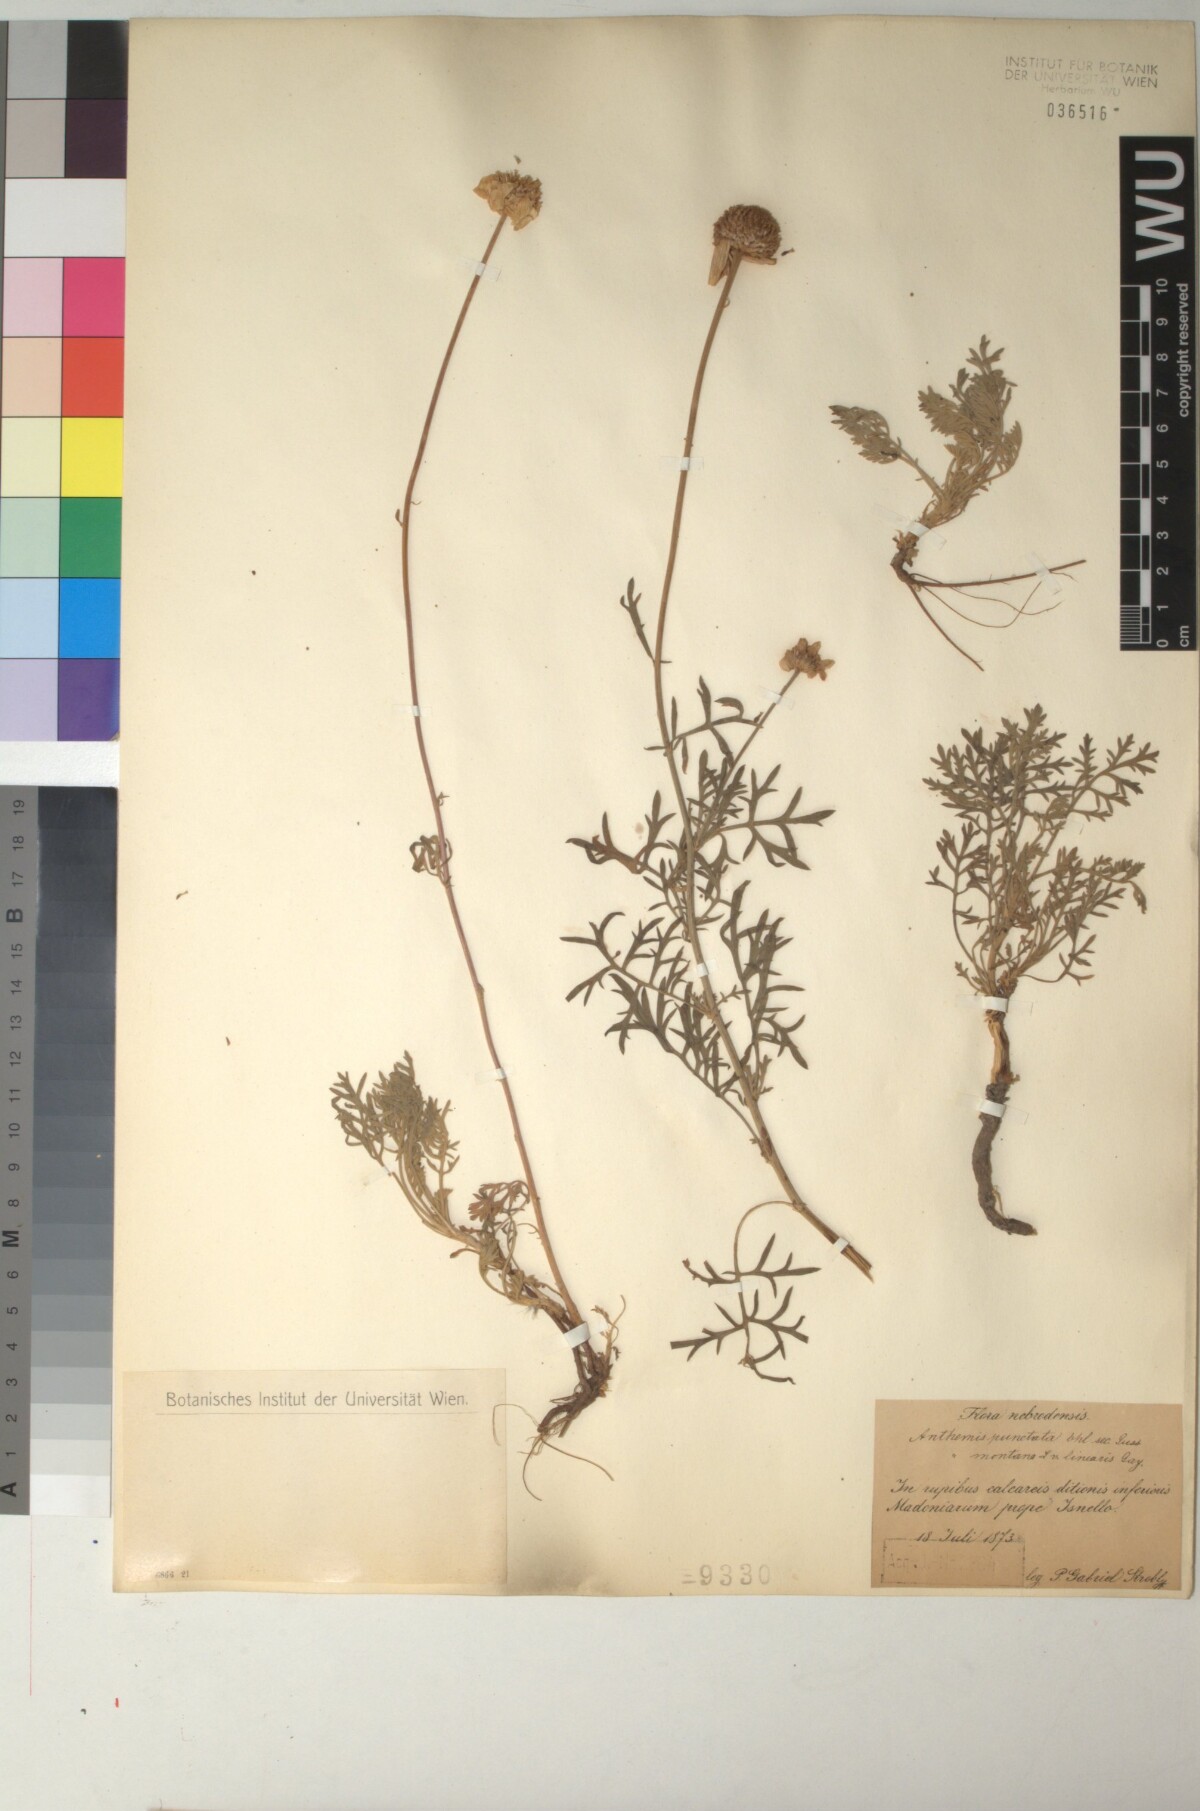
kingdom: Plantae
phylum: Tracheophyta
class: Magnoliopsida
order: Asterales
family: Asteraceae
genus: Anthemis
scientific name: Anthemis punctata
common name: Sicilian chamomile
